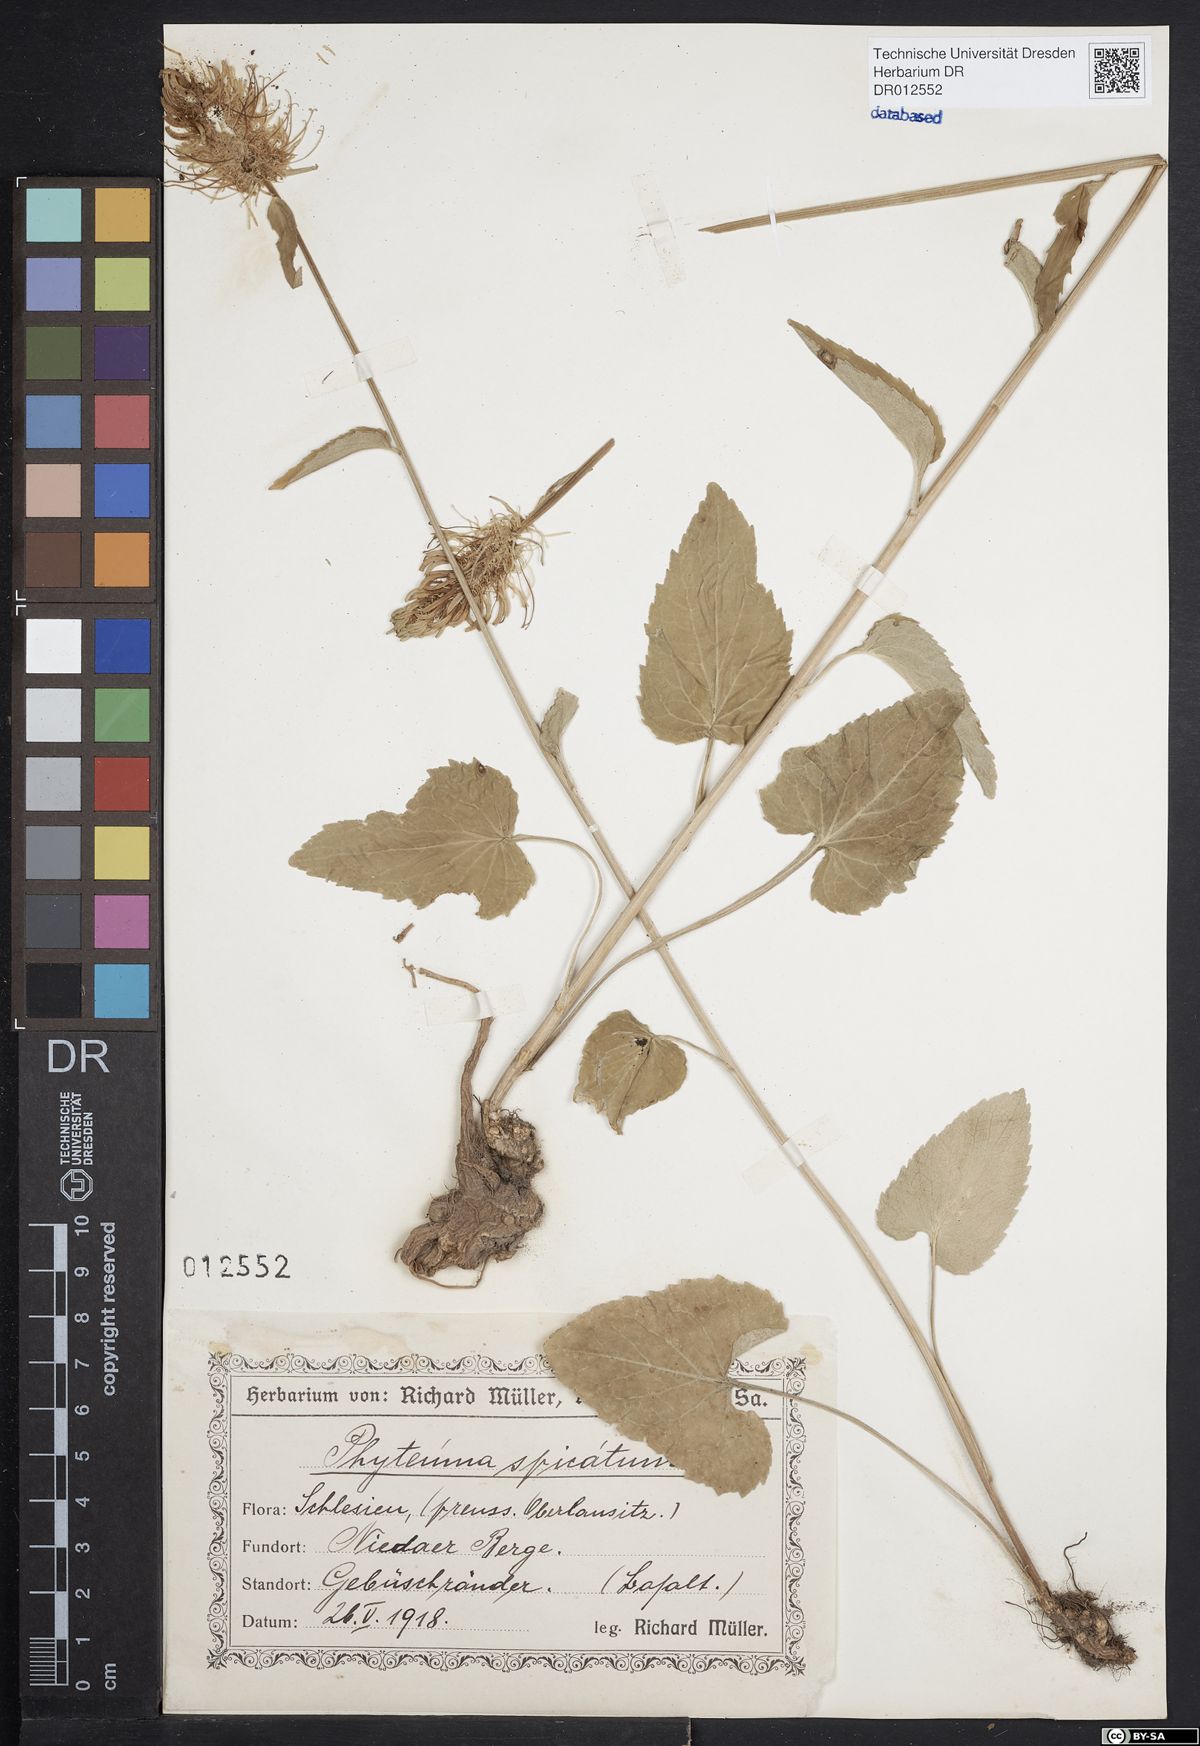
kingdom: Plantae
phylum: Tracheophyta
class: Magnoliopsida
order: Asterales
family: Campanulaceae
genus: Phyteuma
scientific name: Phyteuma spicatum
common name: Spiked rampion
